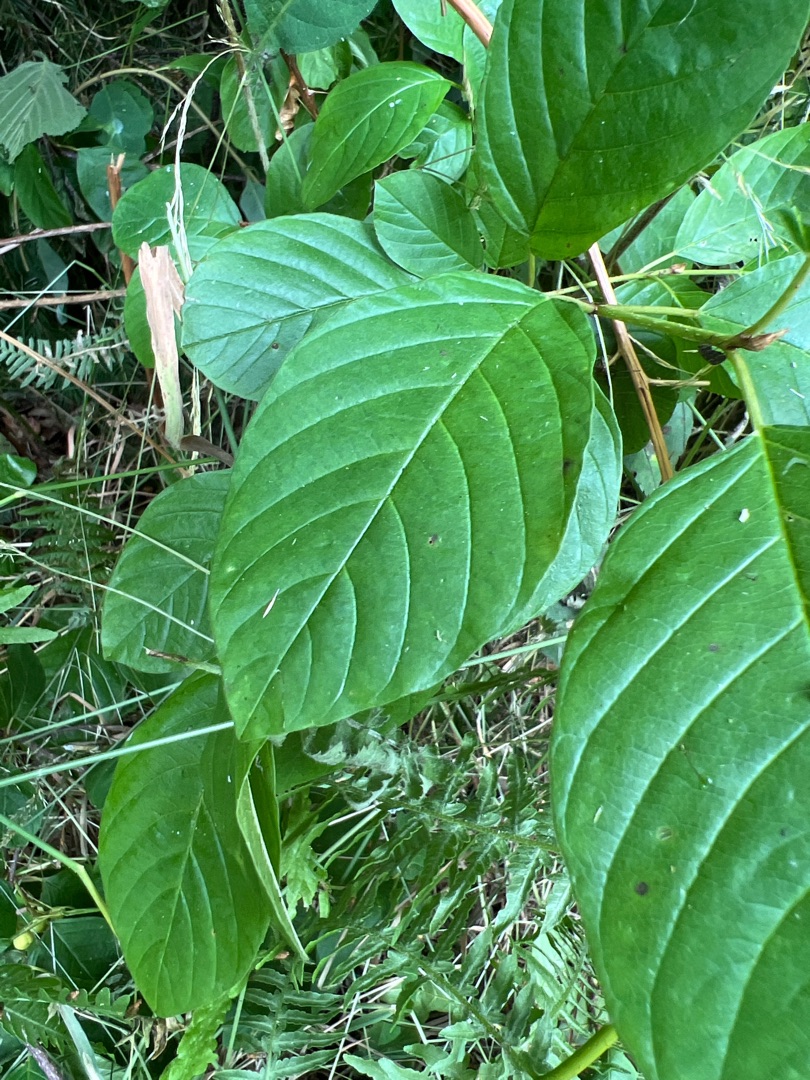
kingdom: Plantae
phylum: Tracheophyta
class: Magnoliopsida
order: Rosales
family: Rhamnaceae
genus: Frangula
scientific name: Frangula alnus
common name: Tørst
